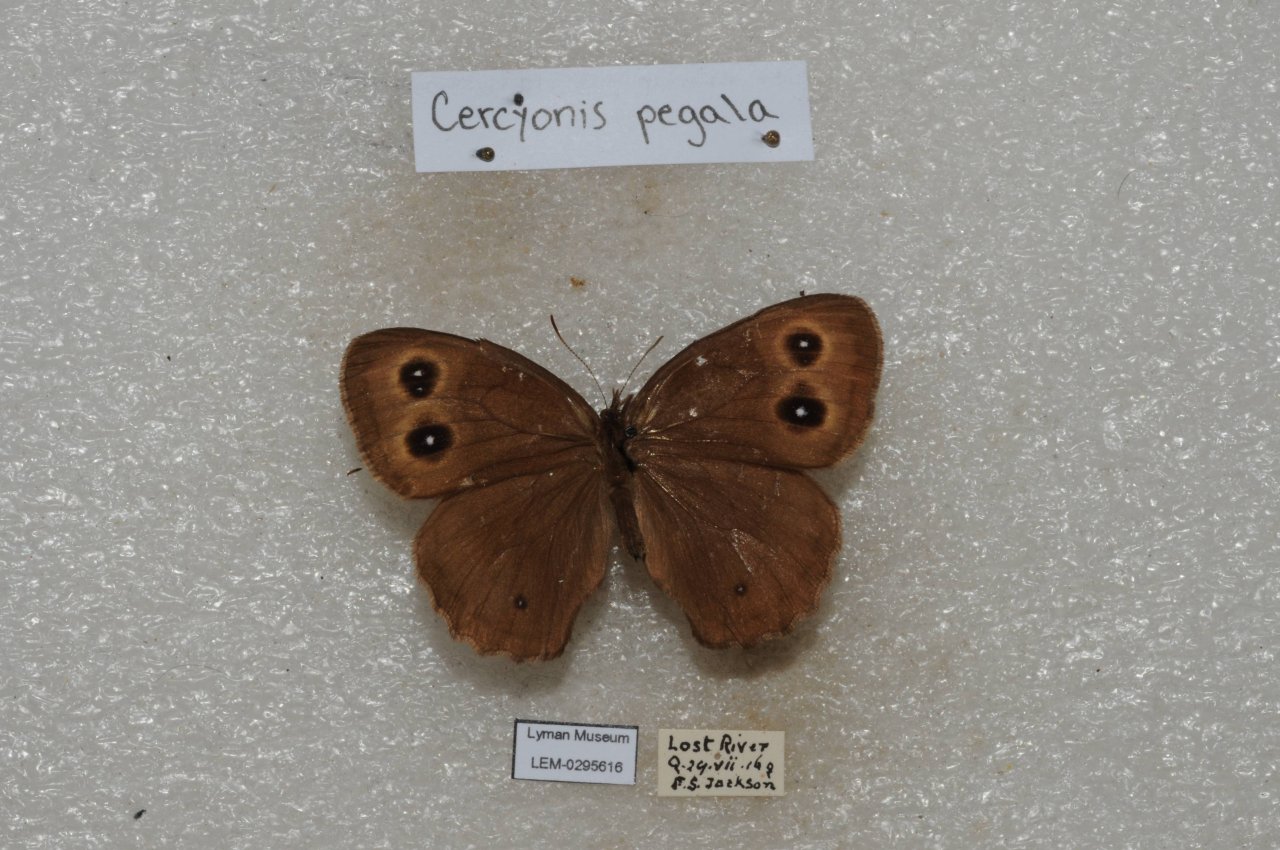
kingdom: Animalia
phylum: Arthropoda
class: Insecta
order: Lepidoptera
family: Nymphalidae
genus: Cercyonis
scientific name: Cercyonis pegala
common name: Common Wood-Nymph
